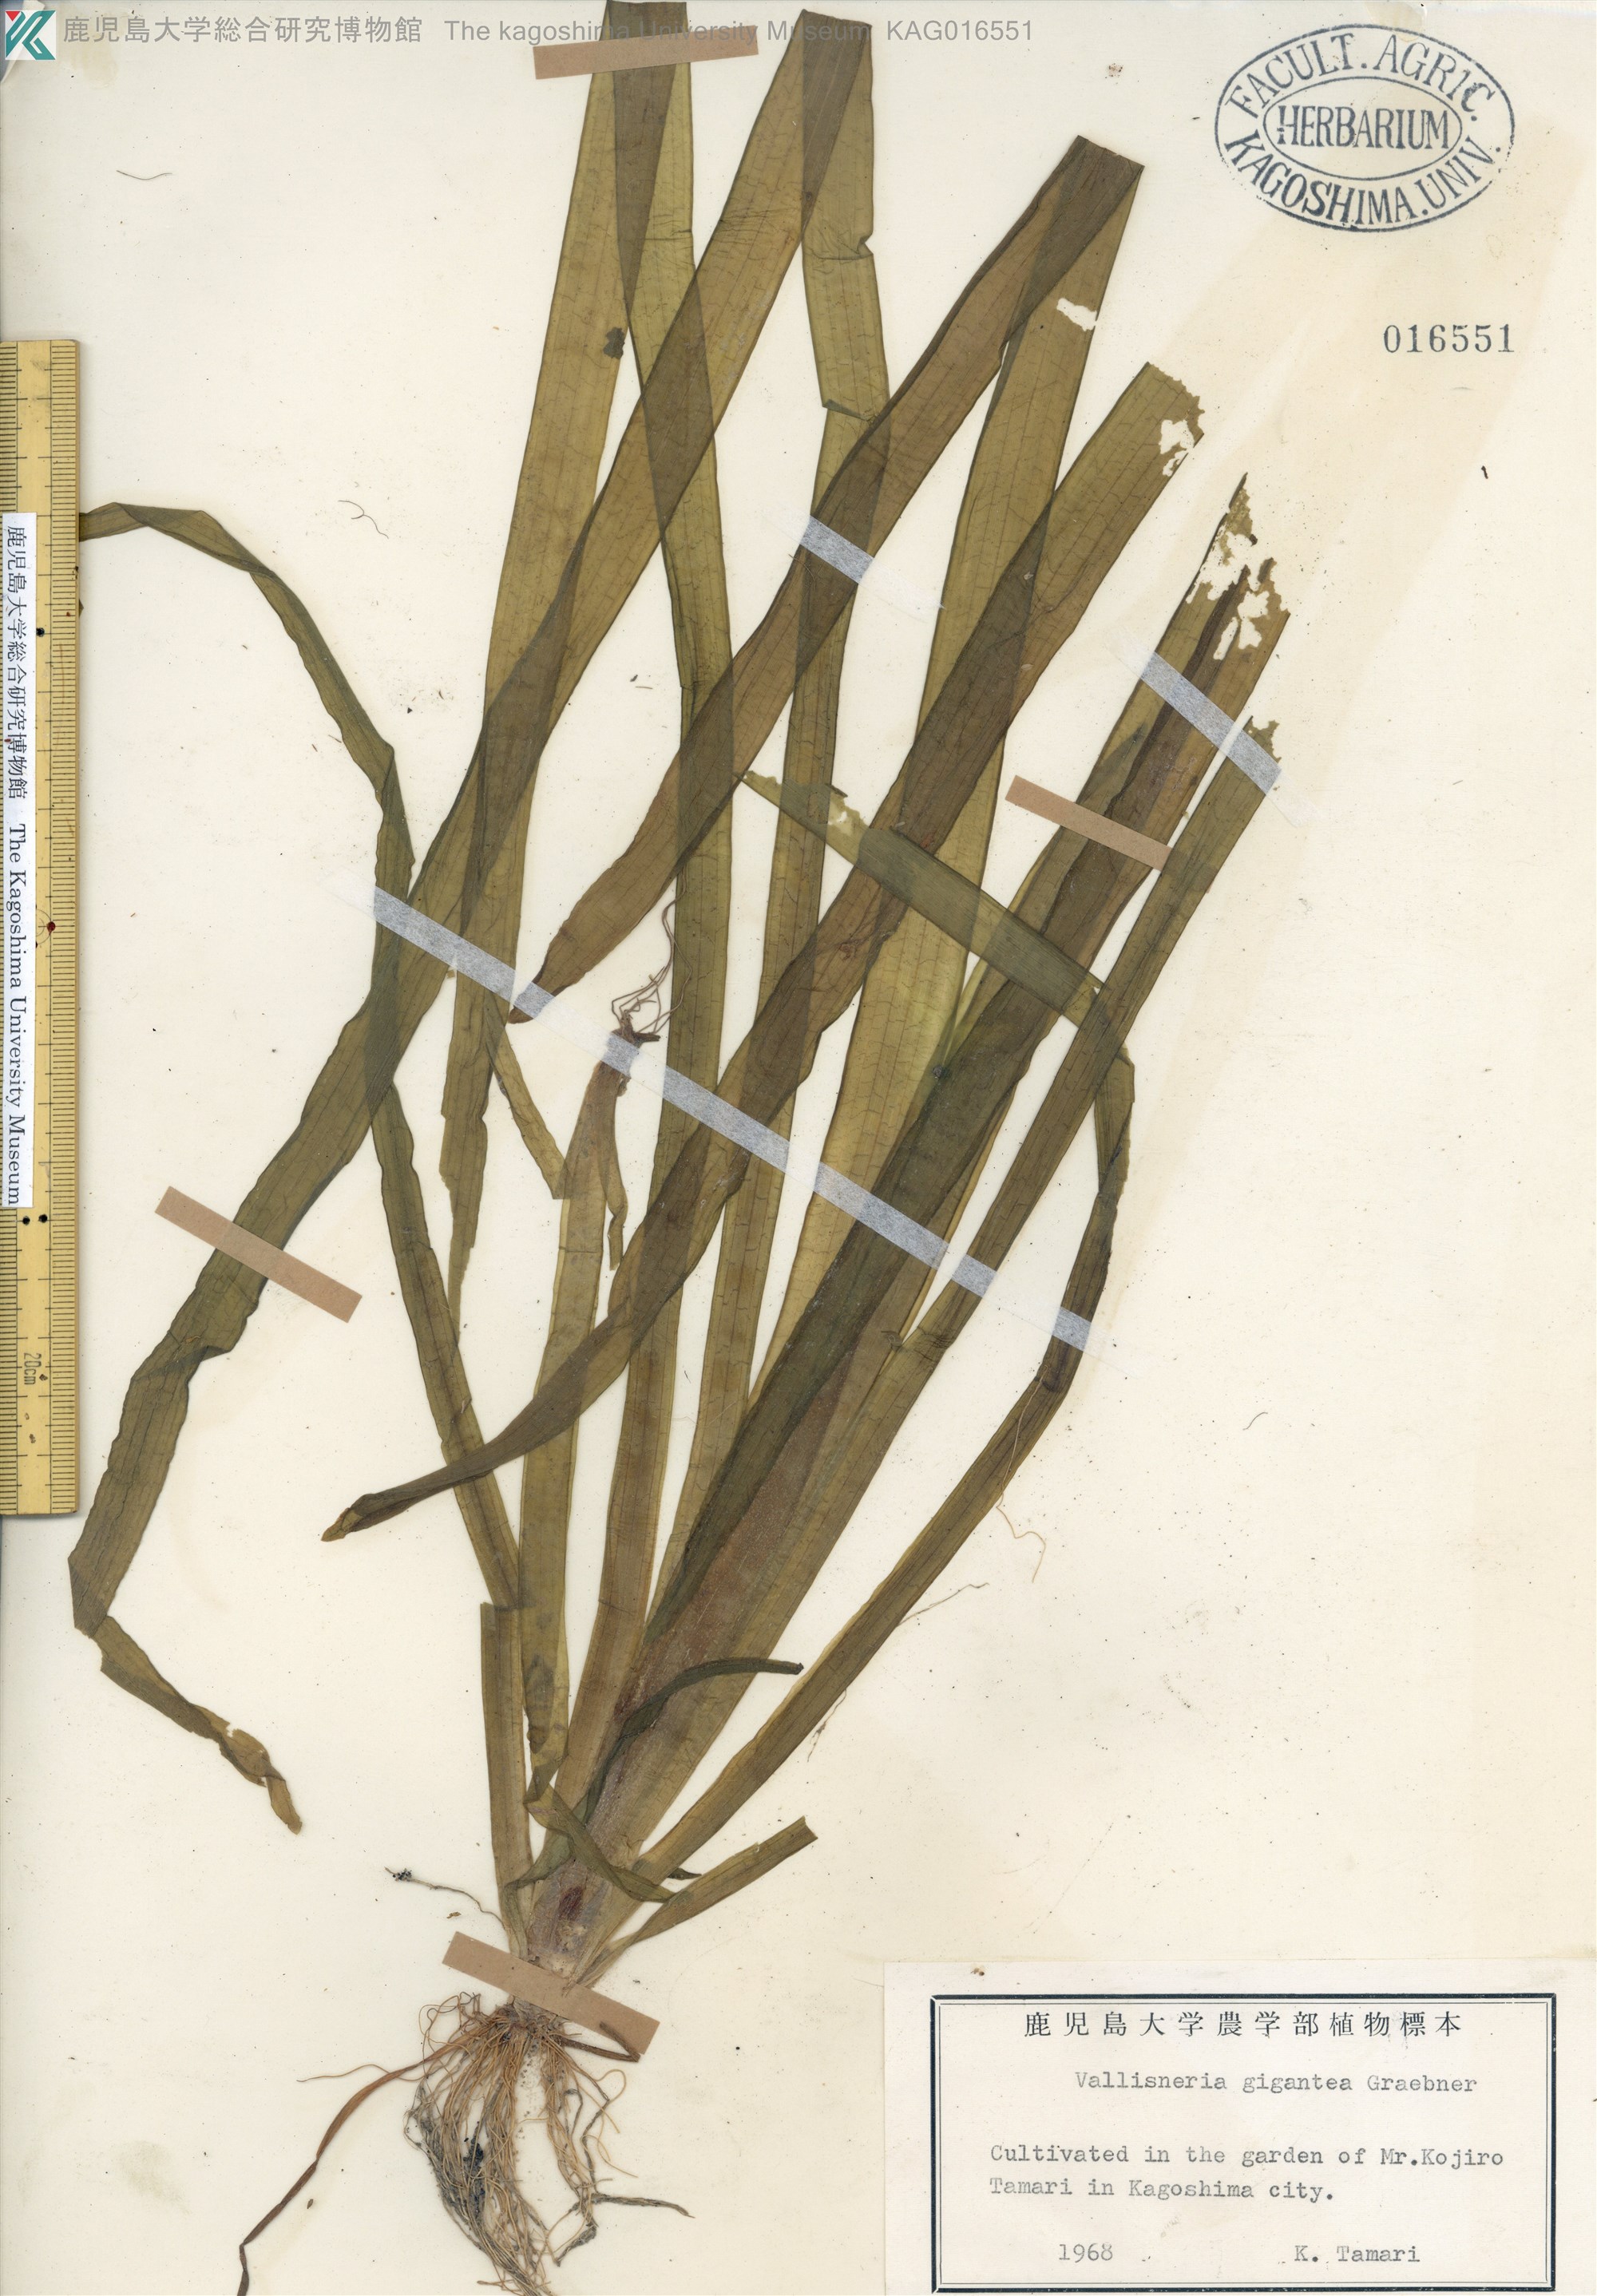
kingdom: Plantae
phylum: Tracheophyta
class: Liliopsida
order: Alismatales
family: Hydrocharitaceae
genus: Vallisneria
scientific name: Vallisneria natans
